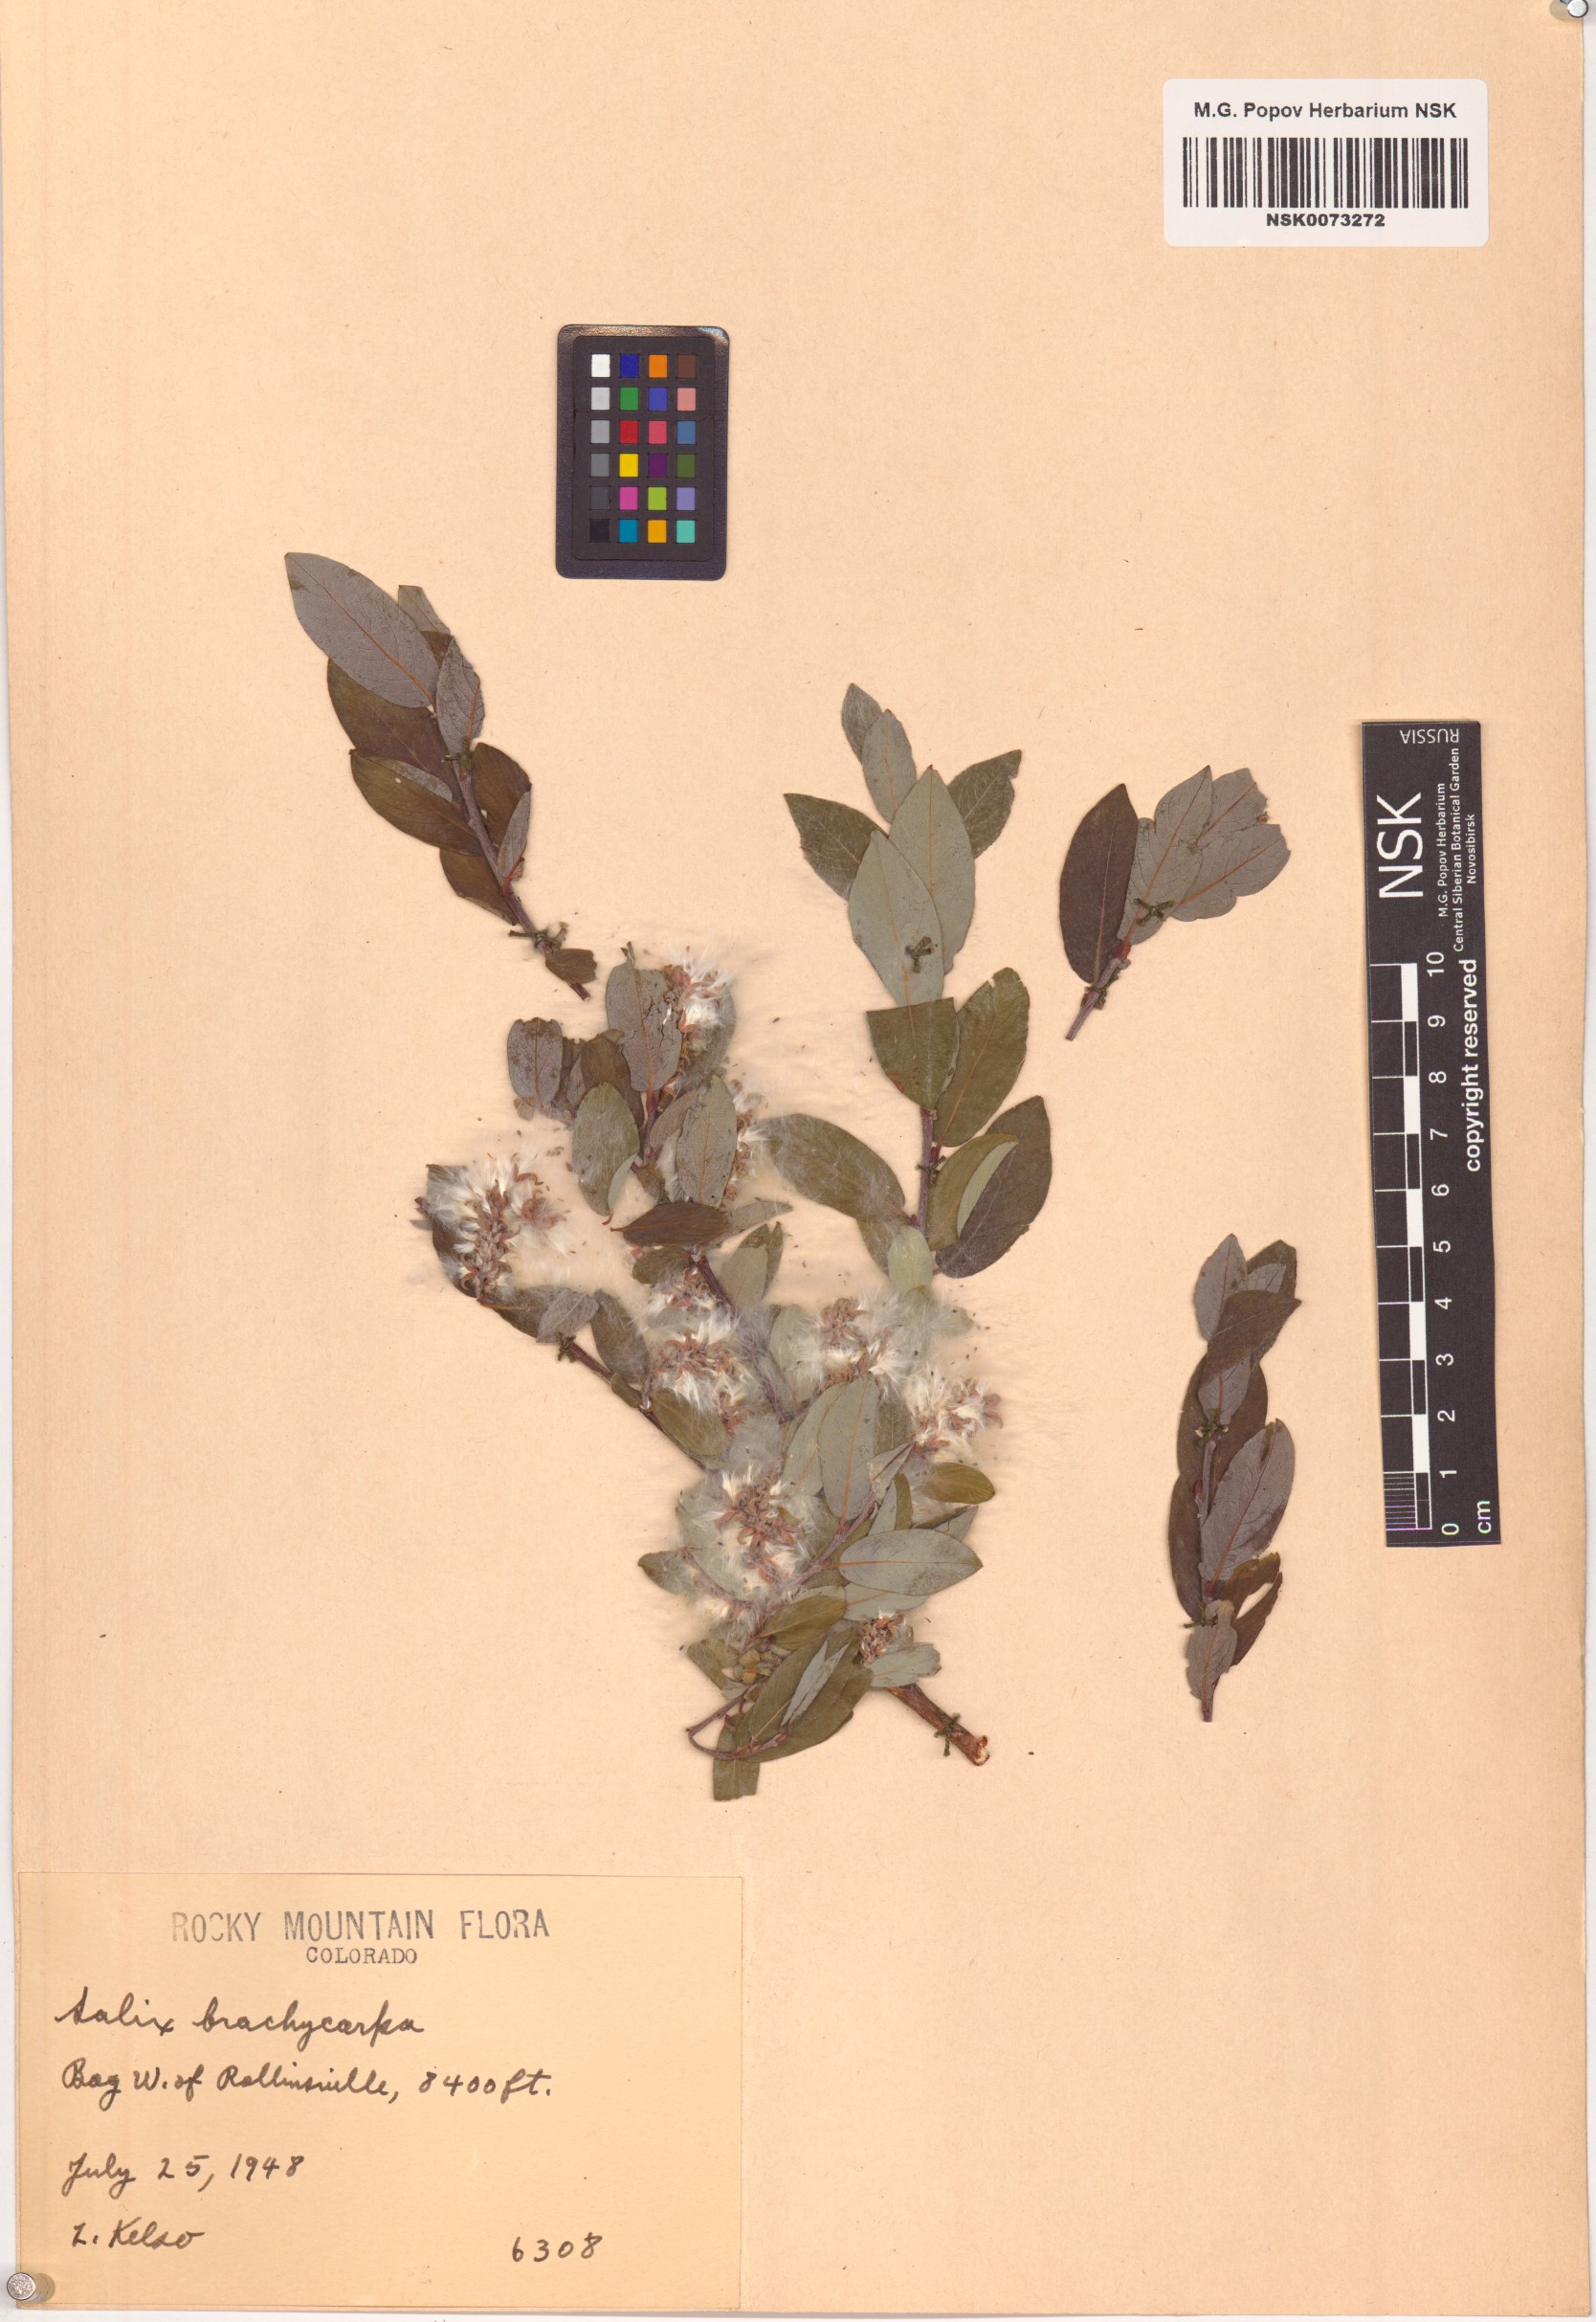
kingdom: Plantae
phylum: Tracheophyta
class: Magnoliopsida
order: Malpighiales
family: Salicaceae
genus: Salix
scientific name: Salix brachycarpa
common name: Barren-ground willow
